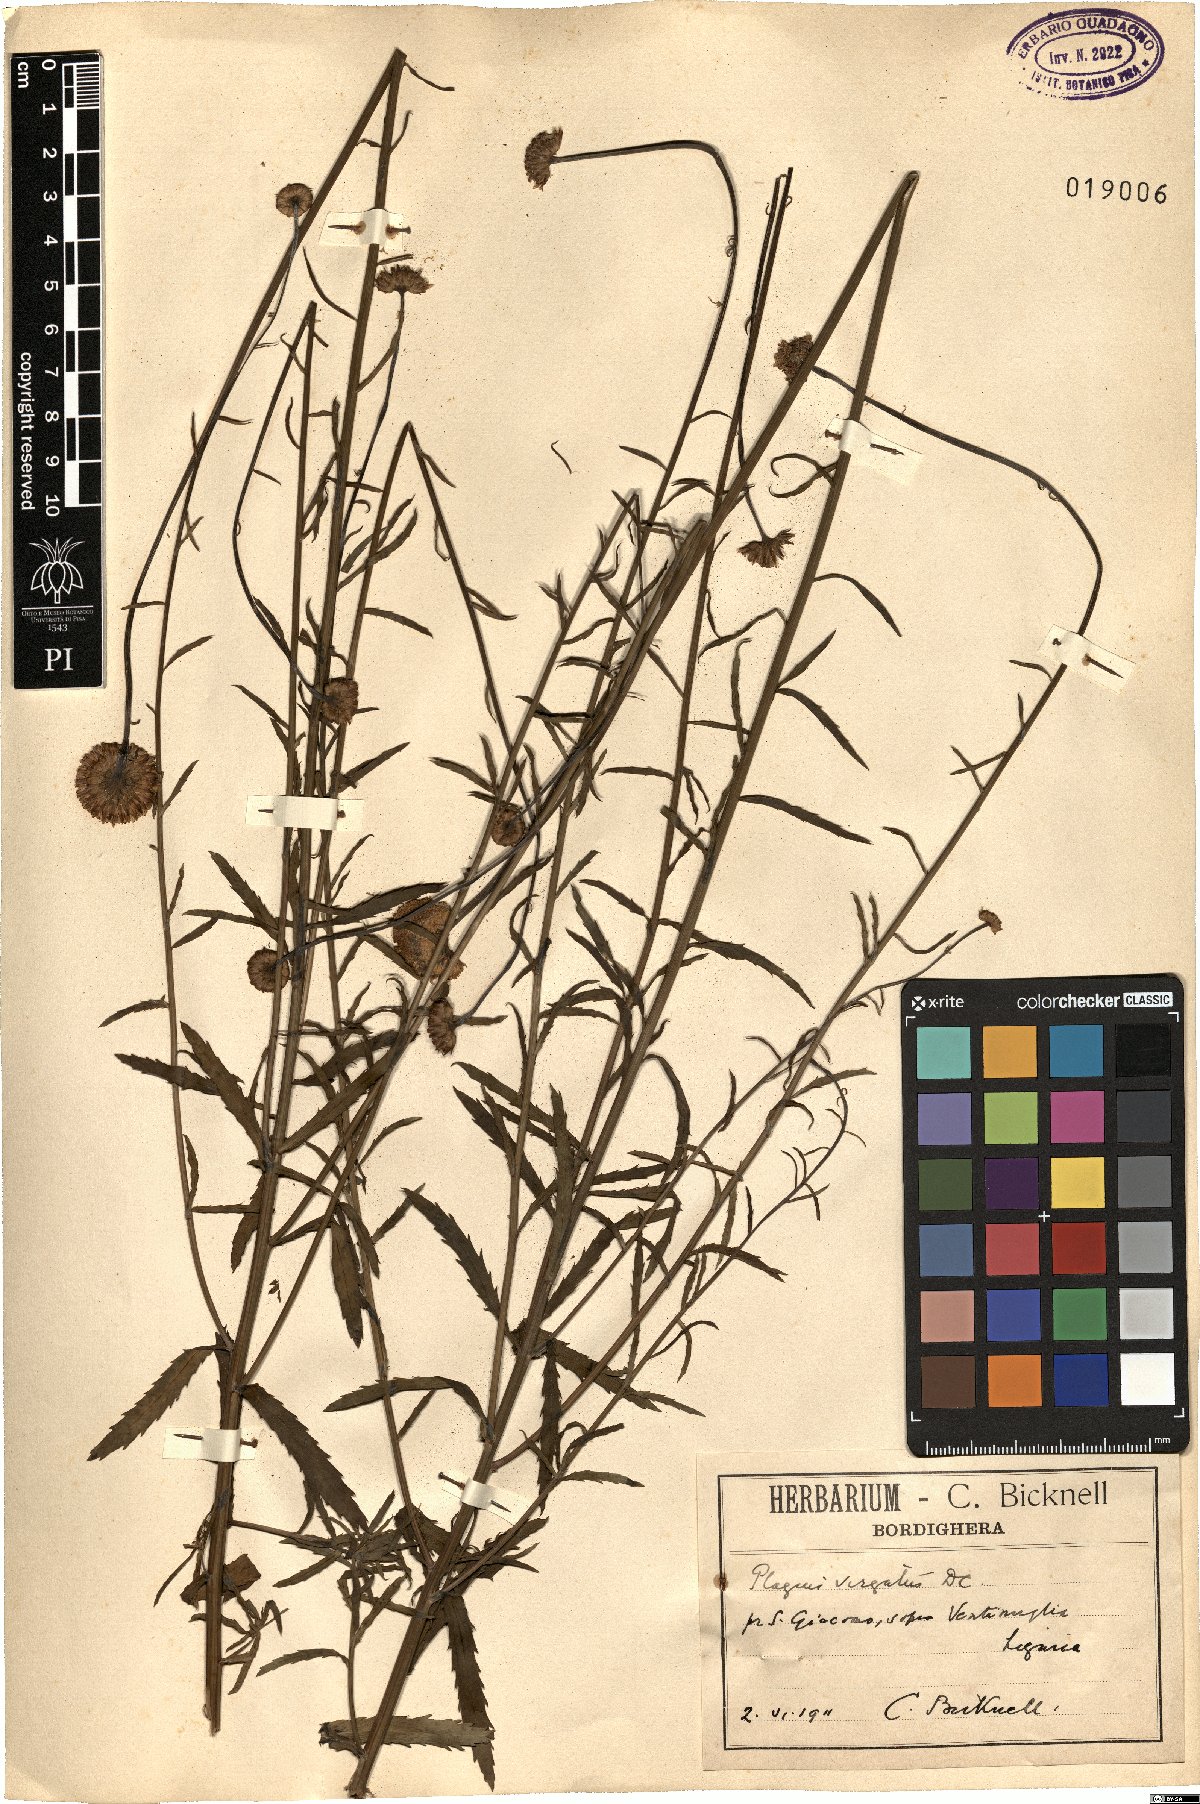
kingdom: Plantae
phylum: Tracheophyta
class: Magnoliopsida
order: Asterales
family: Asteraceae
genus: Leucanthemum
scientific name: Leucanthemum virgatum
